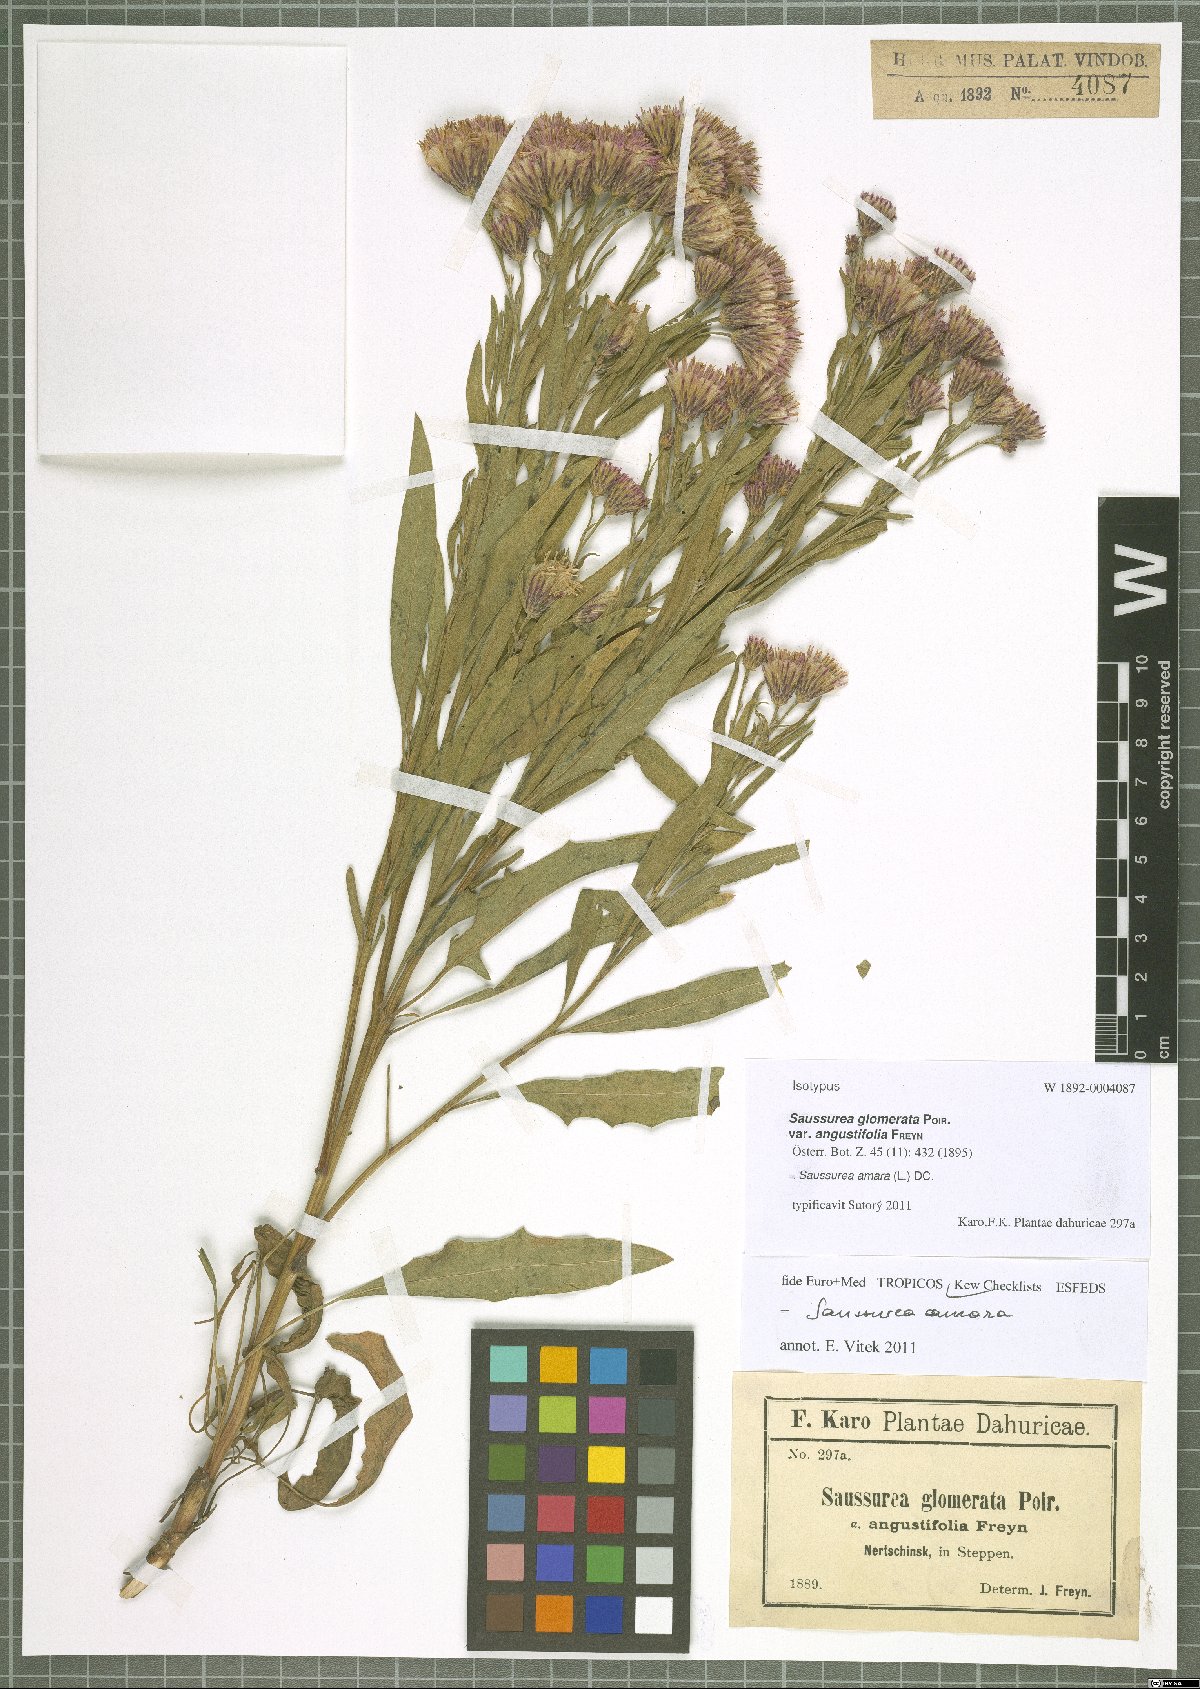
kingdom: Plantae
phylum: Tracheophyta
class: Magnoliopsida
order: Asterales
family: Asteraceae
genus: Saussurea
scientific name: Saussurea amara
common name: Alberta sawwort
